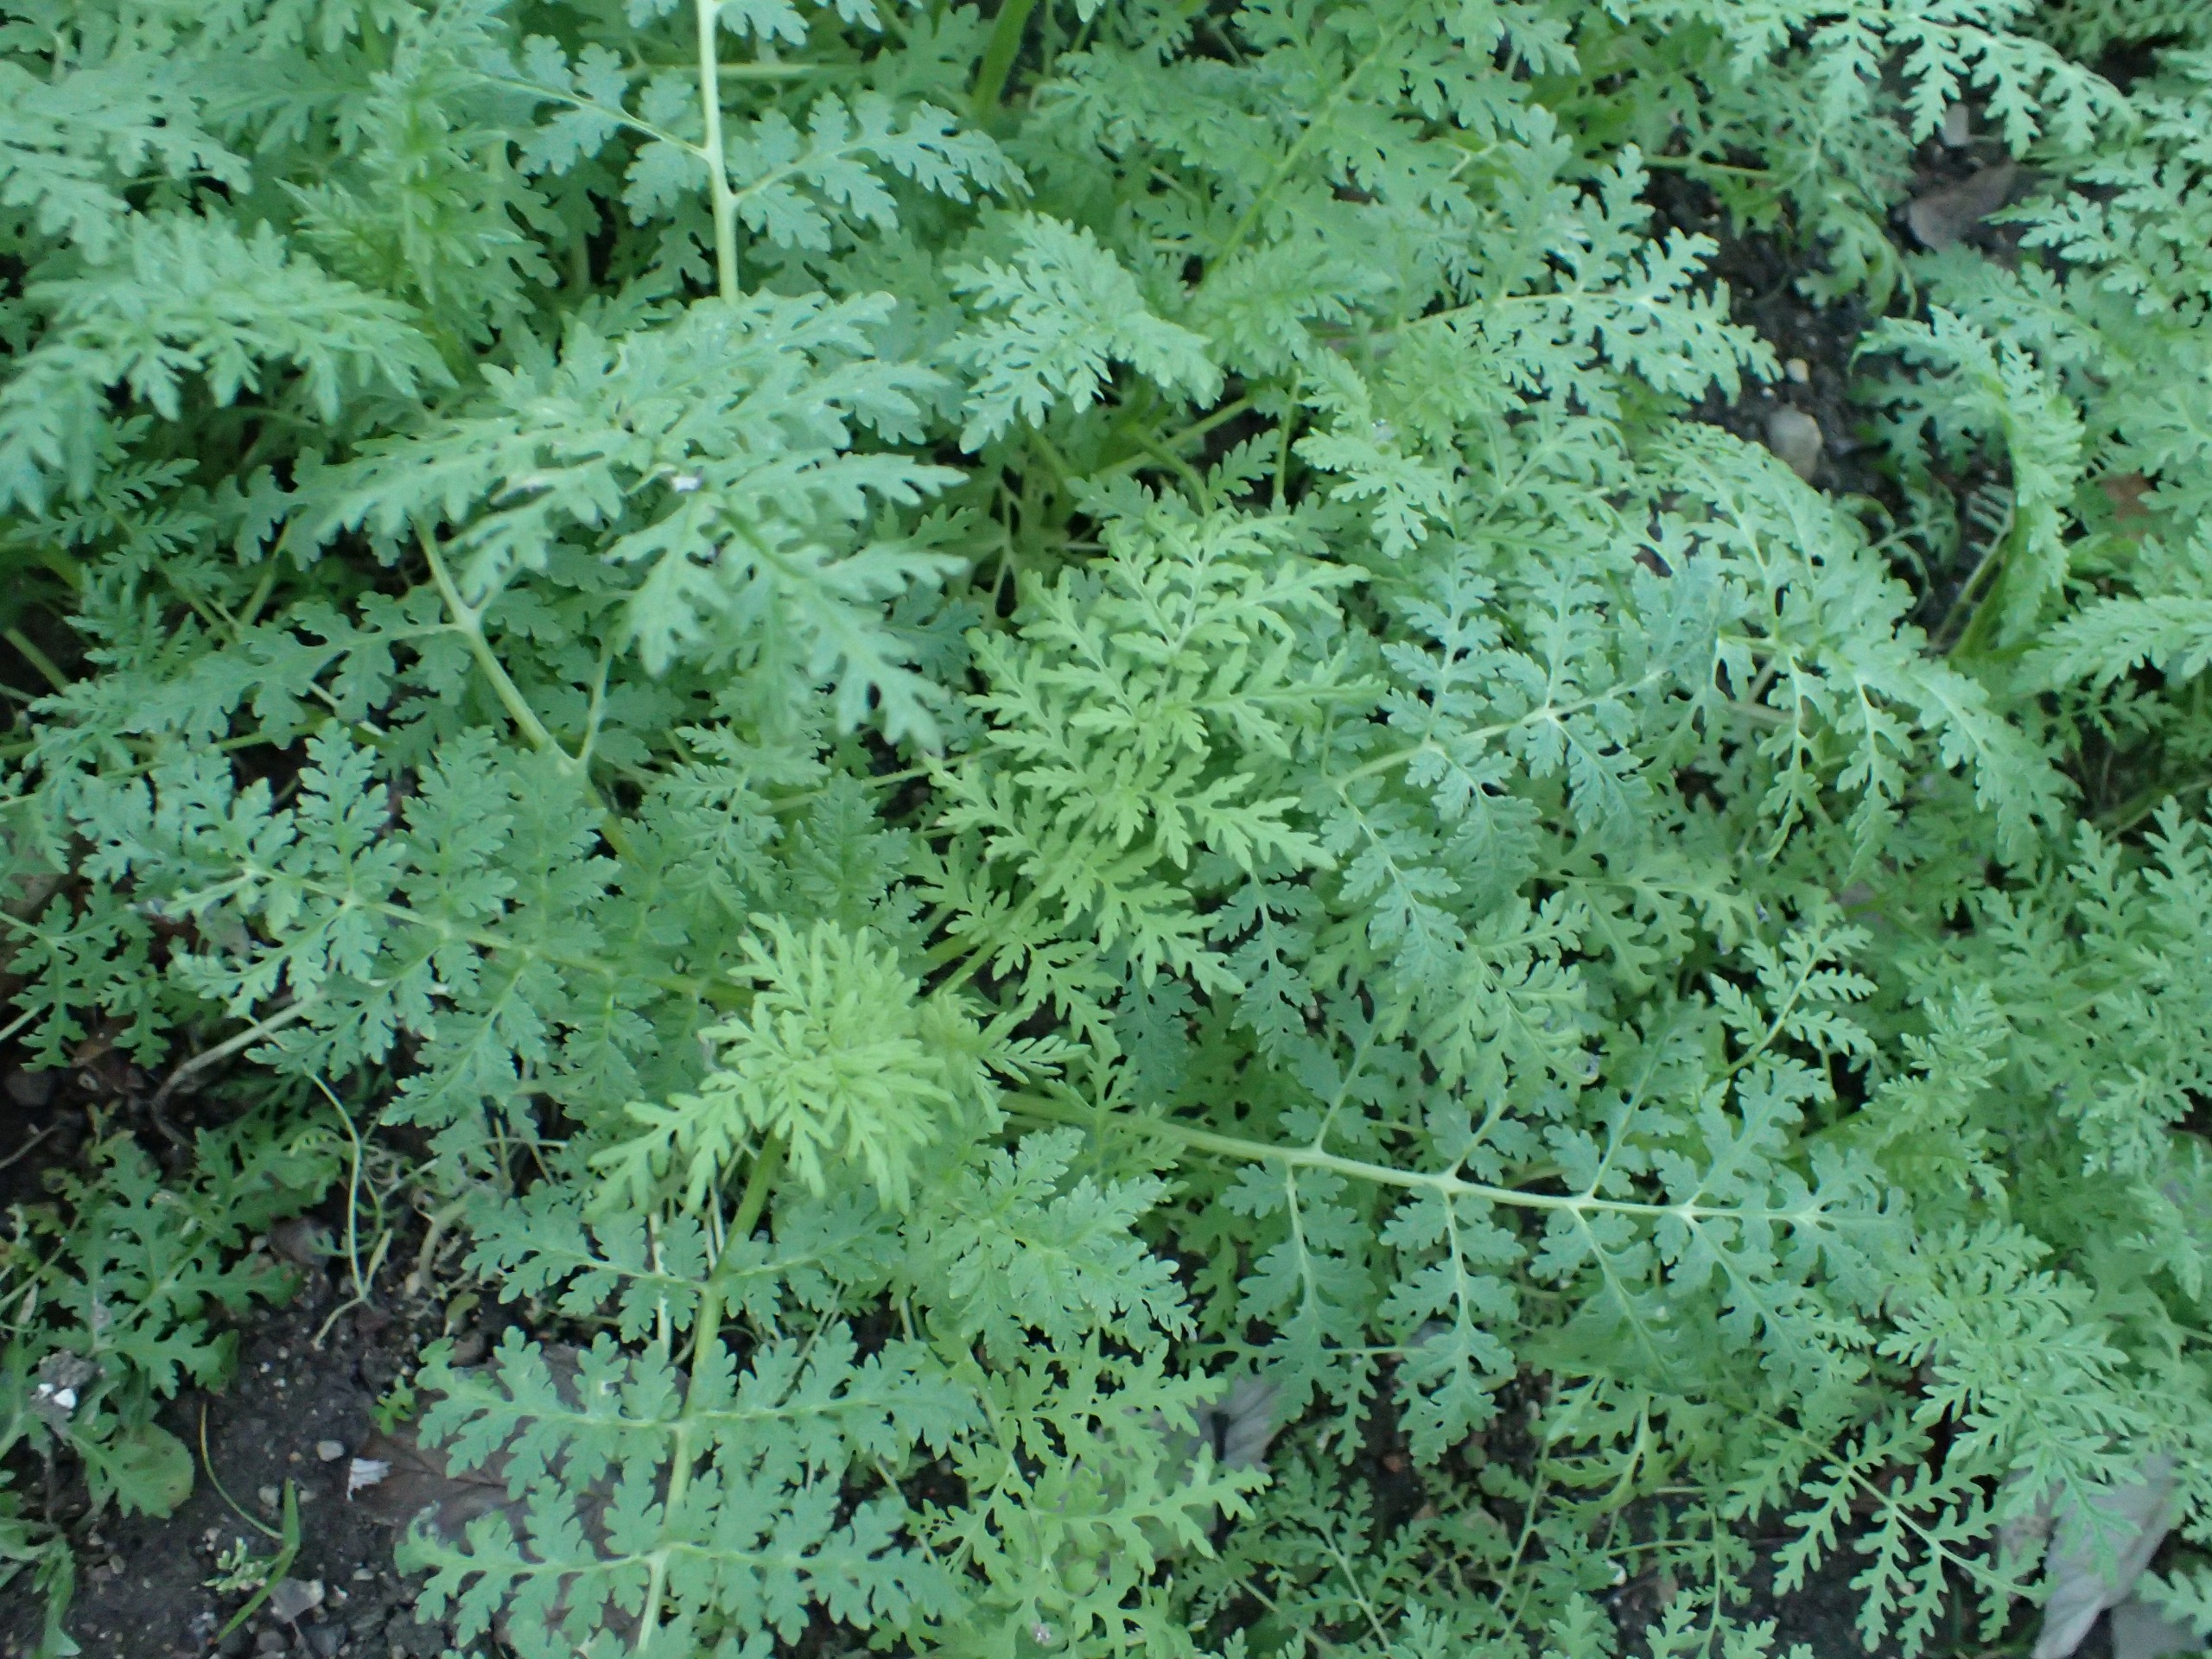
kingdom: Plantae
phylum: Tracheophyta
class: Magnoliopsida
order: Boraginales
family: Hydrophyllaceae
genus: Phacelia
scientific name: Phacelia tanacetifolia
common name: Honningurt
